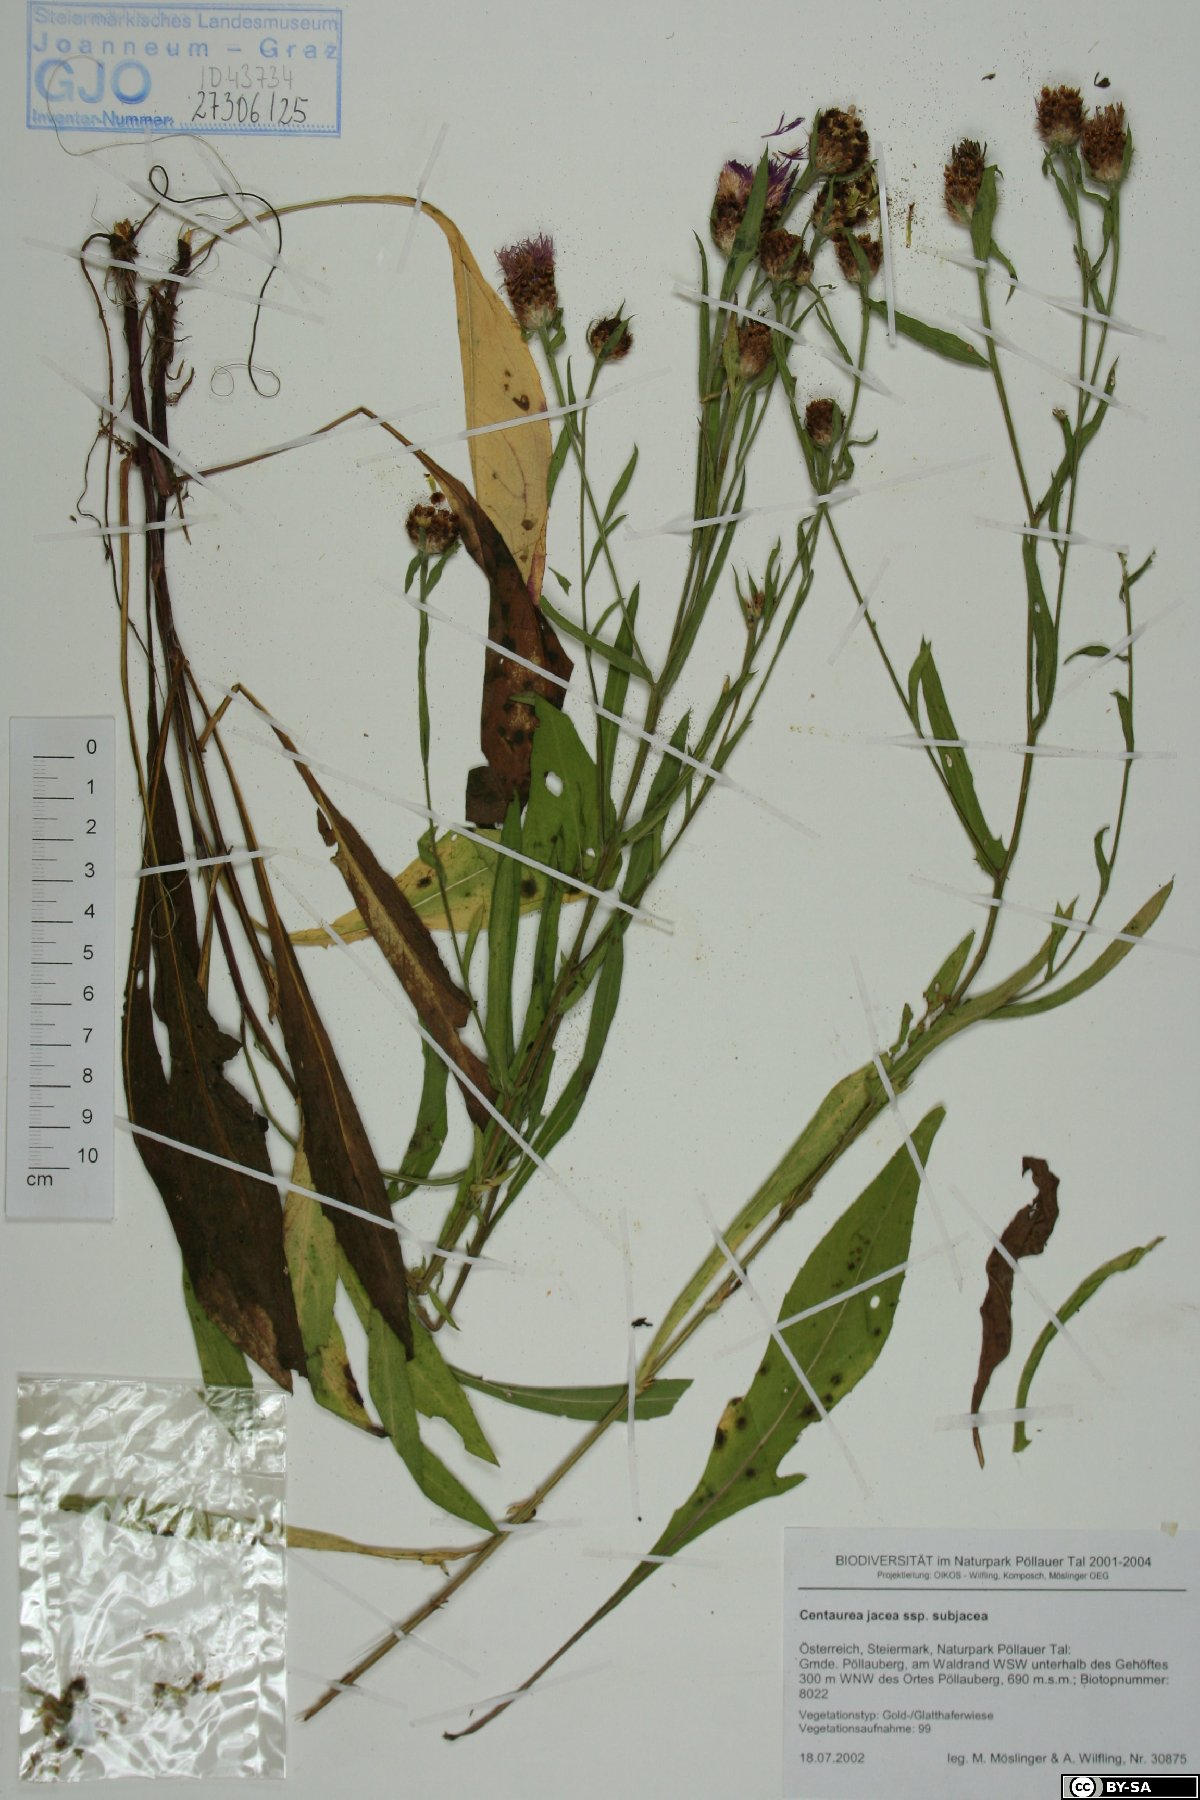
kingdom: Plantae
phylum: Tracheophyta
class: Magnoliopsida
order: Asterales
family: Asteraceae
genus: Centaurea
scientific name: Centaurea preissmannii
